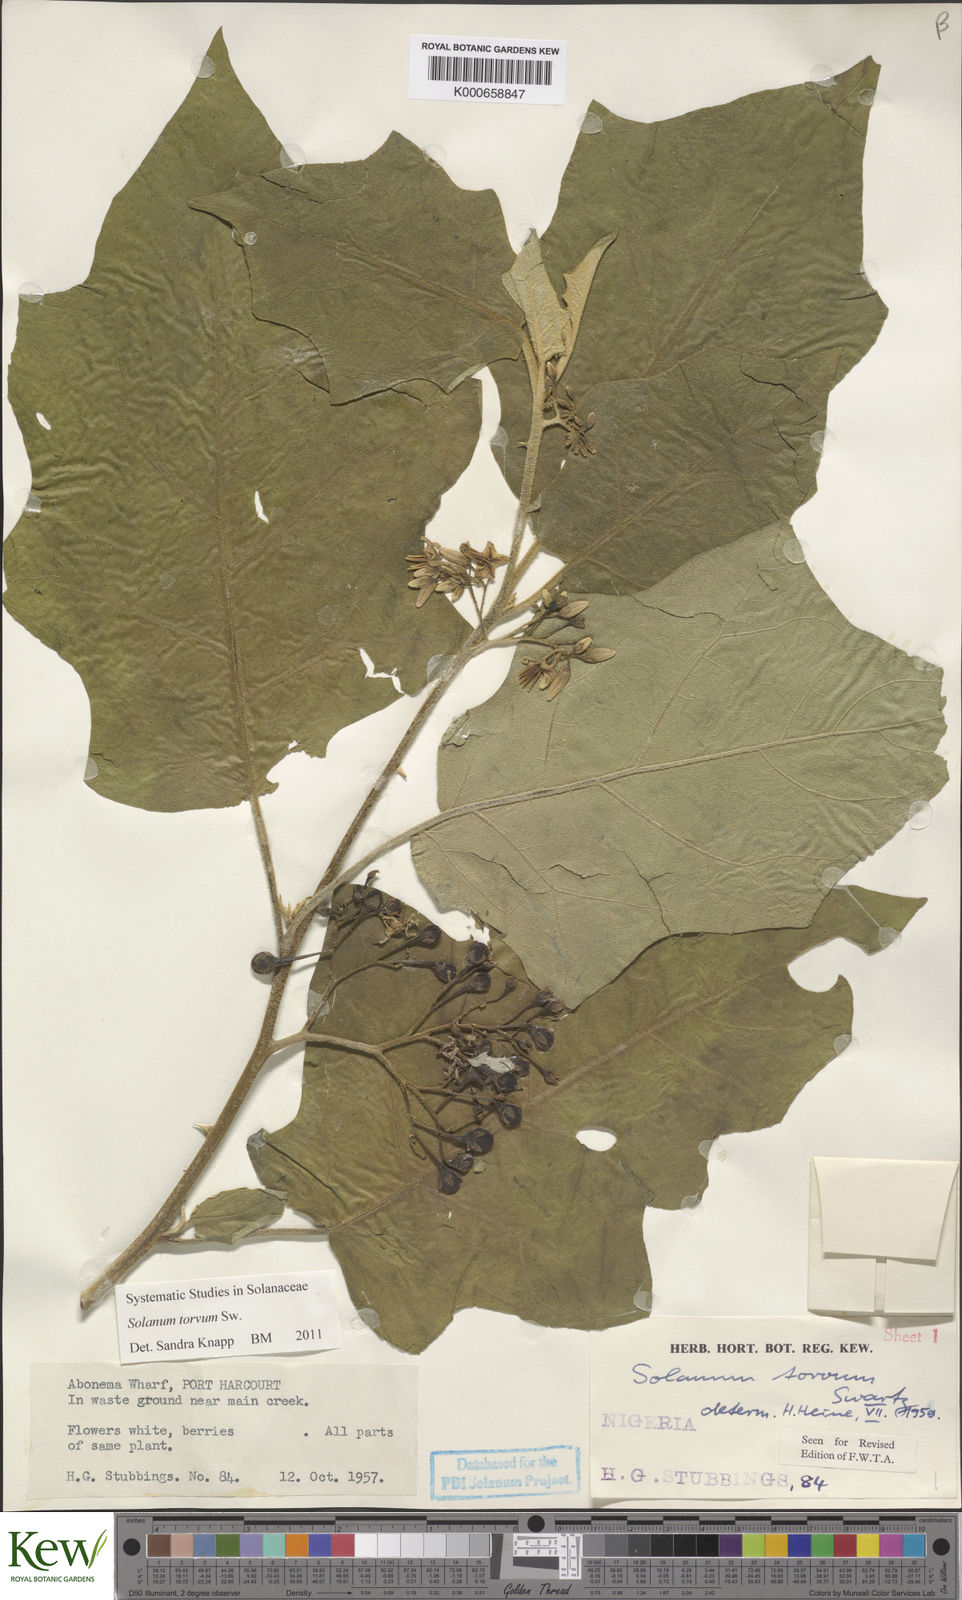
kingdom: Plantae
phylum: Tracheophyta
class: Magnoliopsida
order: Solanales
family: Solanaceae
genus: Solanum
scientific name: Solanum torvum
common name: Turkey berry
